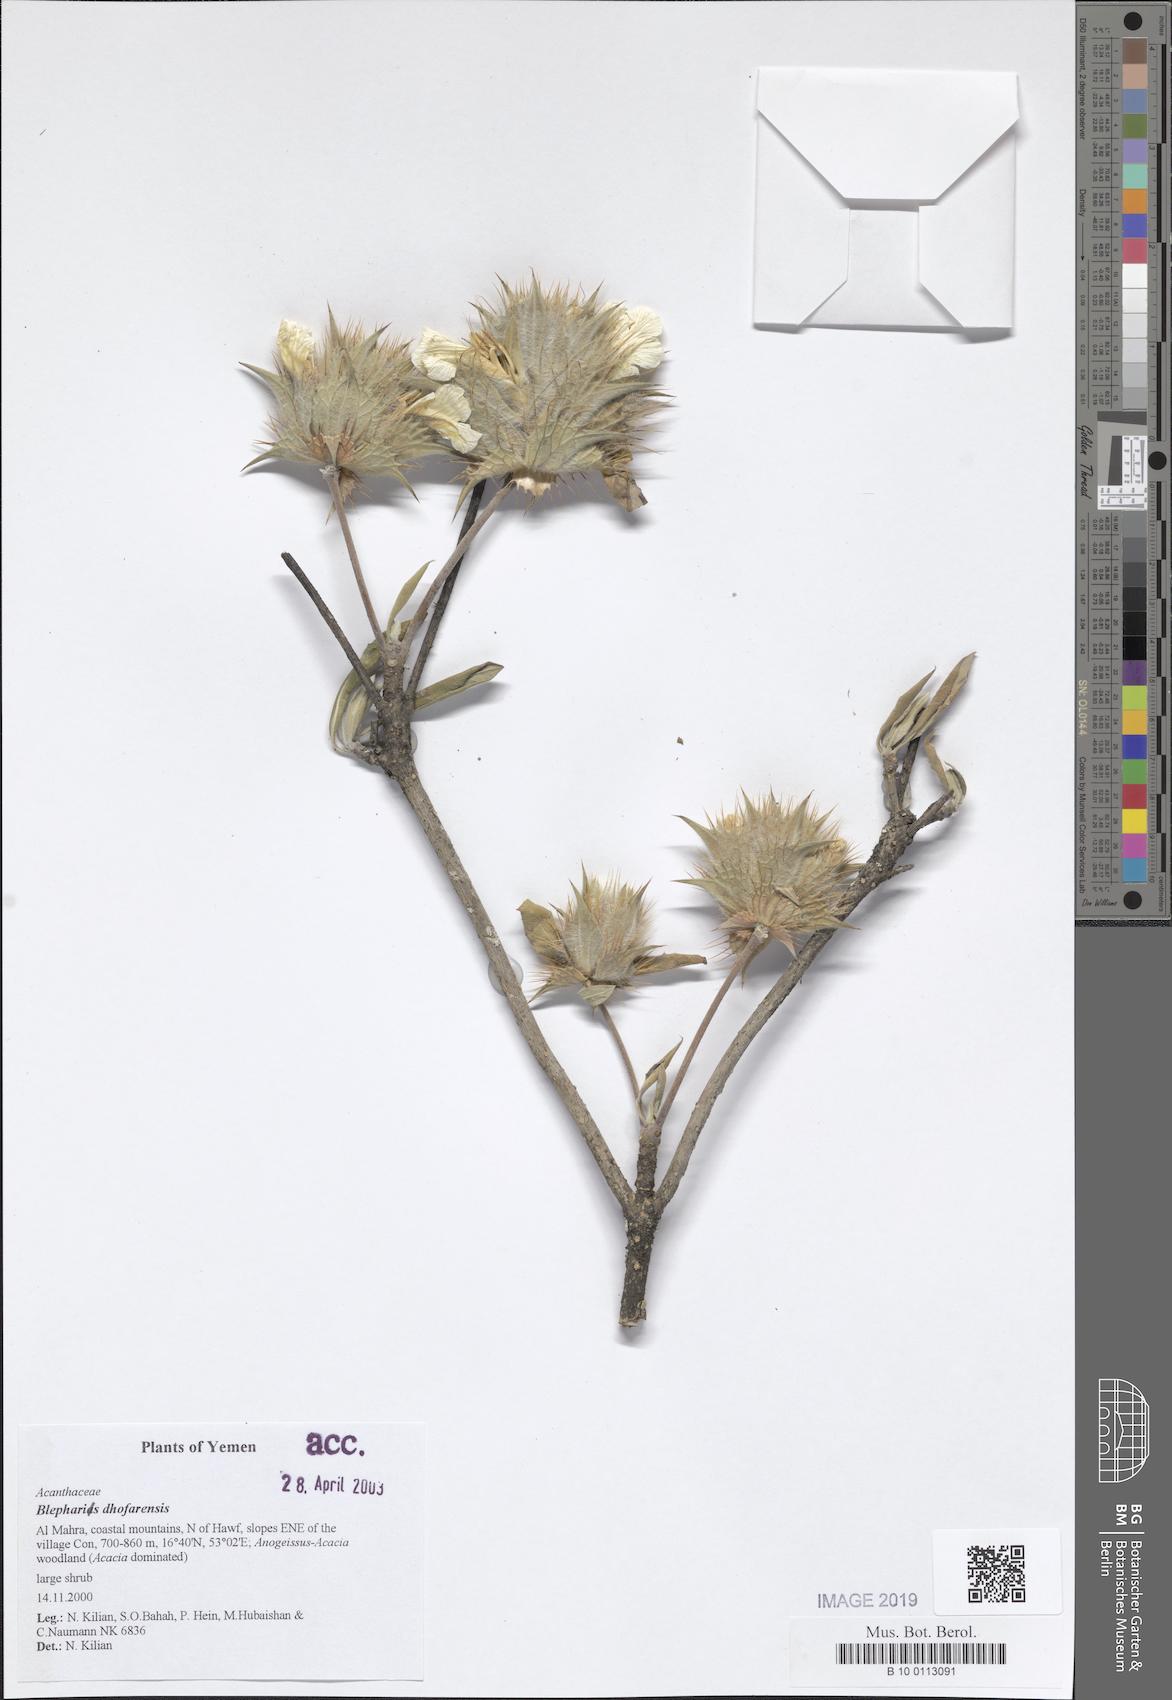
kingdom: Plantae
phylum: Tracheophyta
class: Magnoliopsida
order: Lamiales
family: Acanthaceae
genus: Blepharis
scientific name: Blepharis ciliaris
